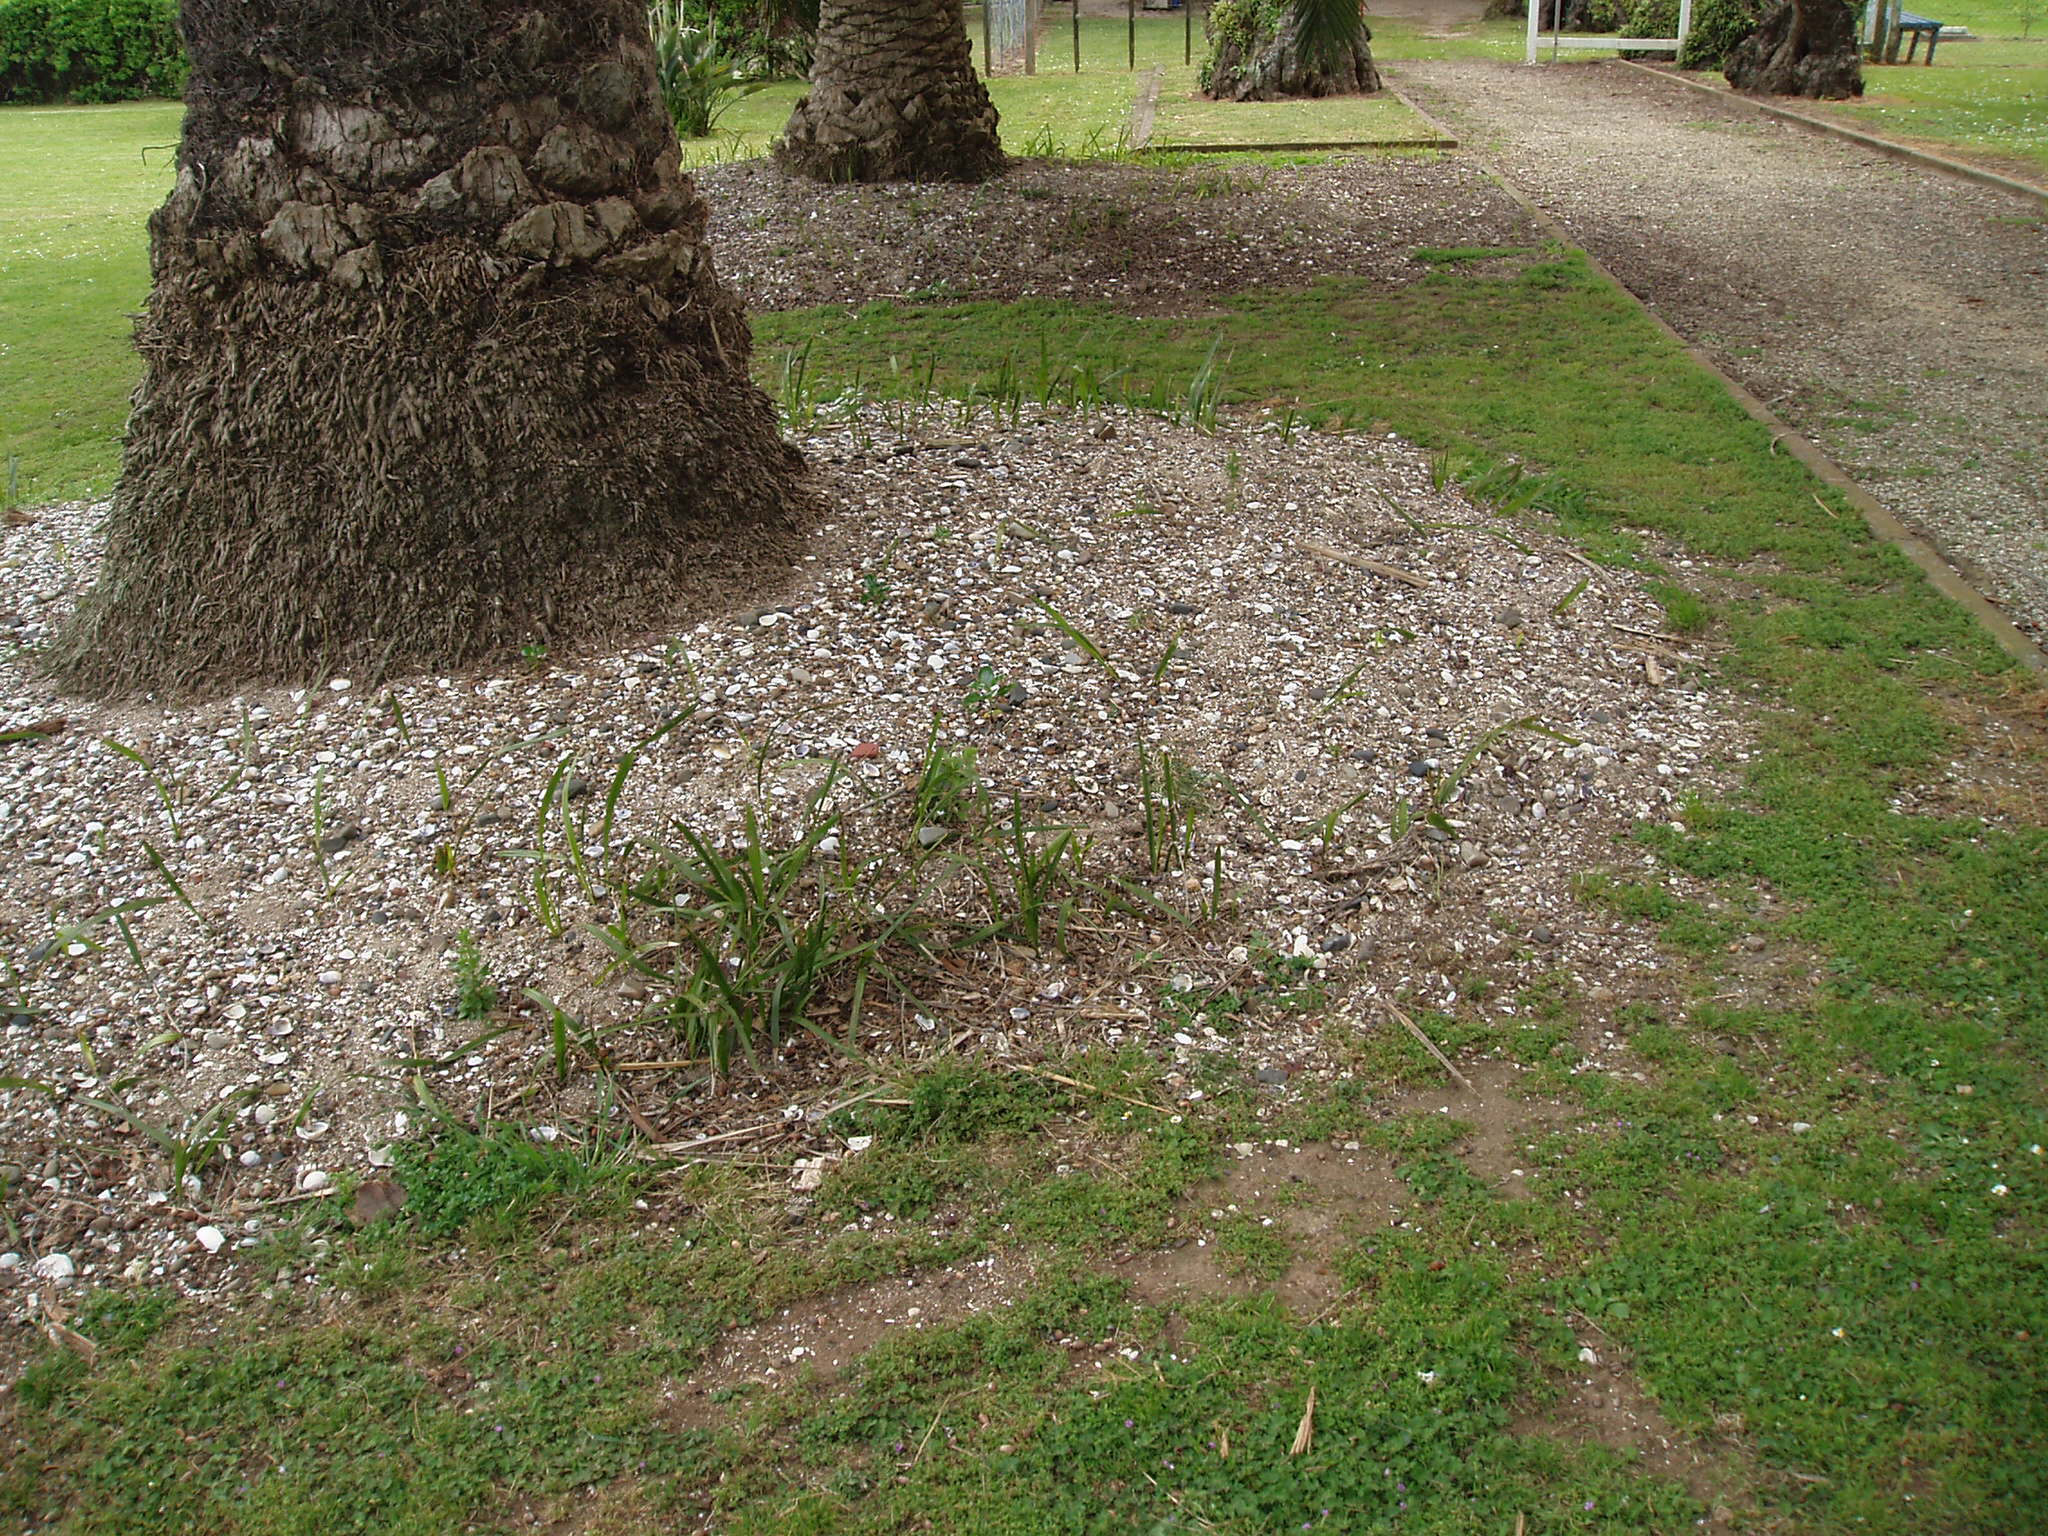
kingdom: Plantae
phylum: Tracheophyta
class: Liliopsida
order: Arecales
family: Arecaceae
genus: Phoenix
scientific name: Phoenix canariensis
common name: Canary island date palm
